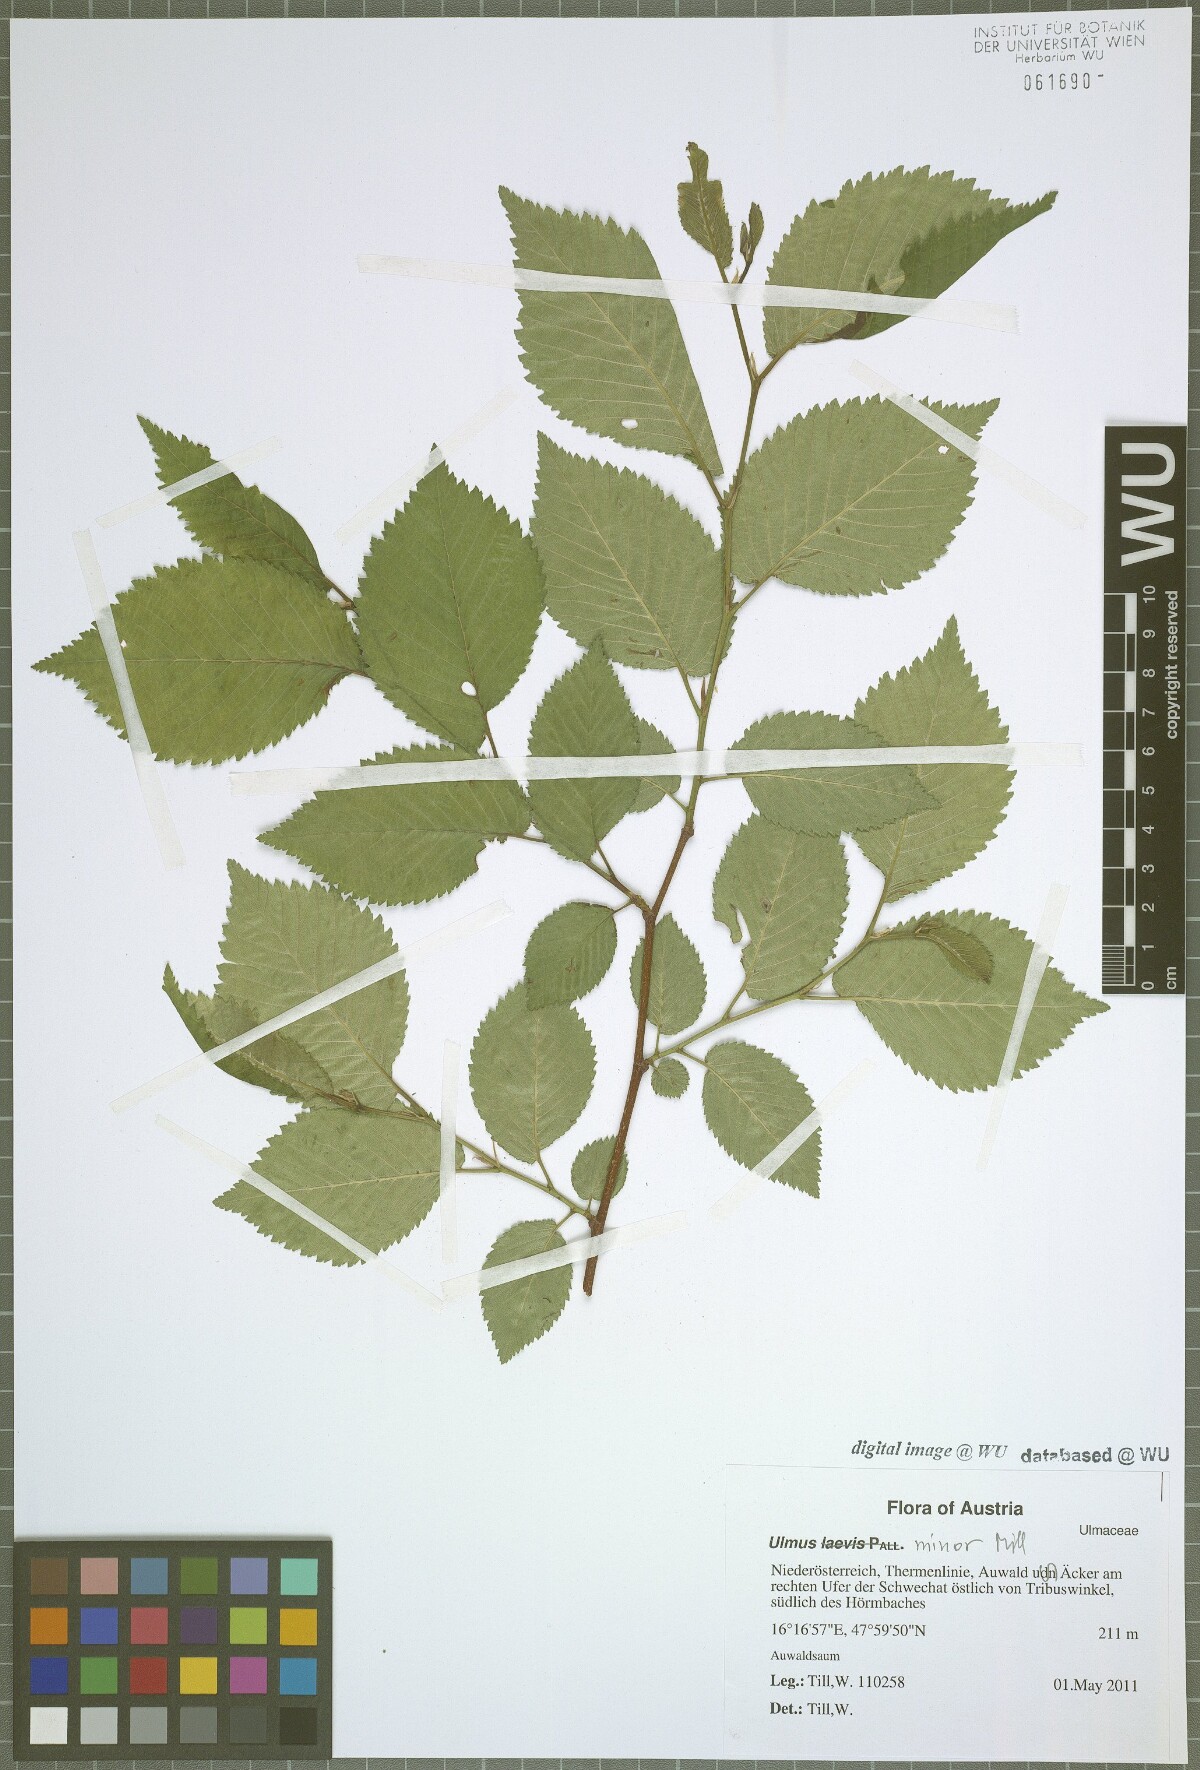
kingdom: Plantae
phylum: Tracheophyta
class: Magnoliopsida
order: Rosales
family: Ulmaceae
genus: Ulmus
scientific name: Ulmus minor
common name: Small-leaved elm
